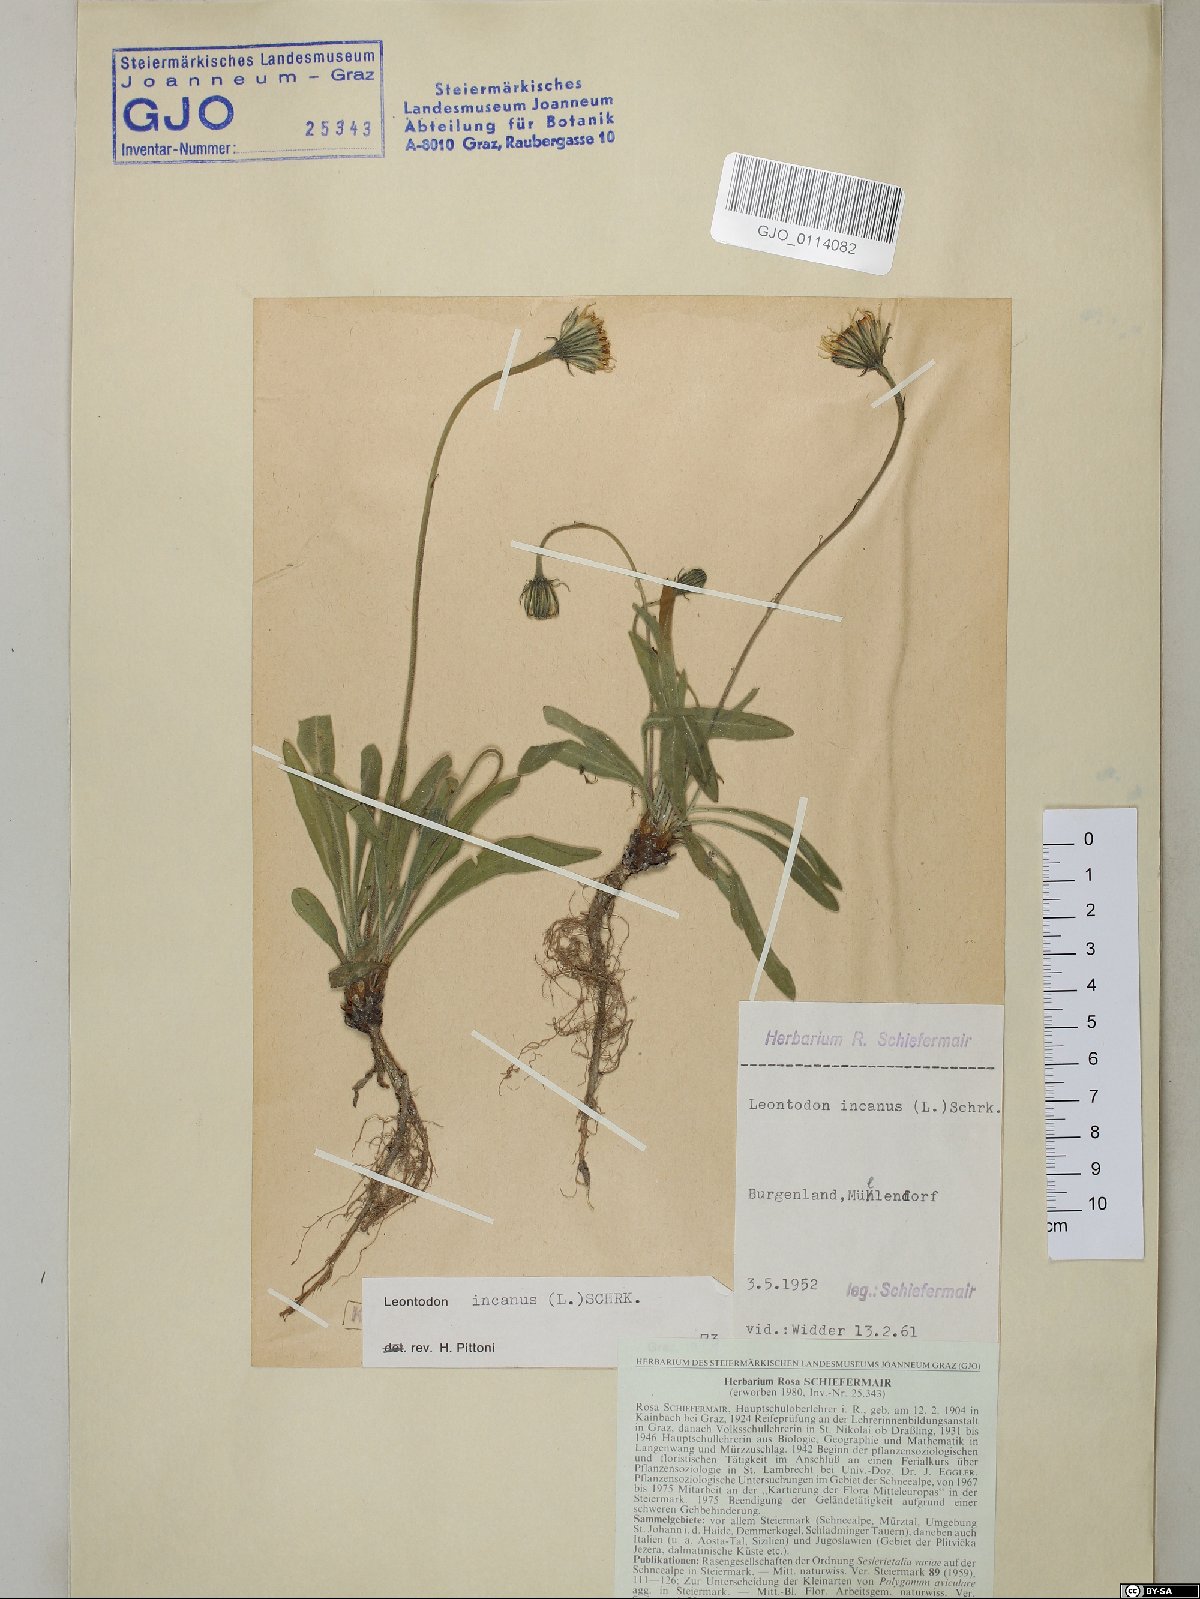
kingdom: Plantae
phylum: Tracheophyta
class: Magnoliopsida
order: Asterales
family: Asteraceae
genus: Leontodon
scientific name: Leontodon incanus
